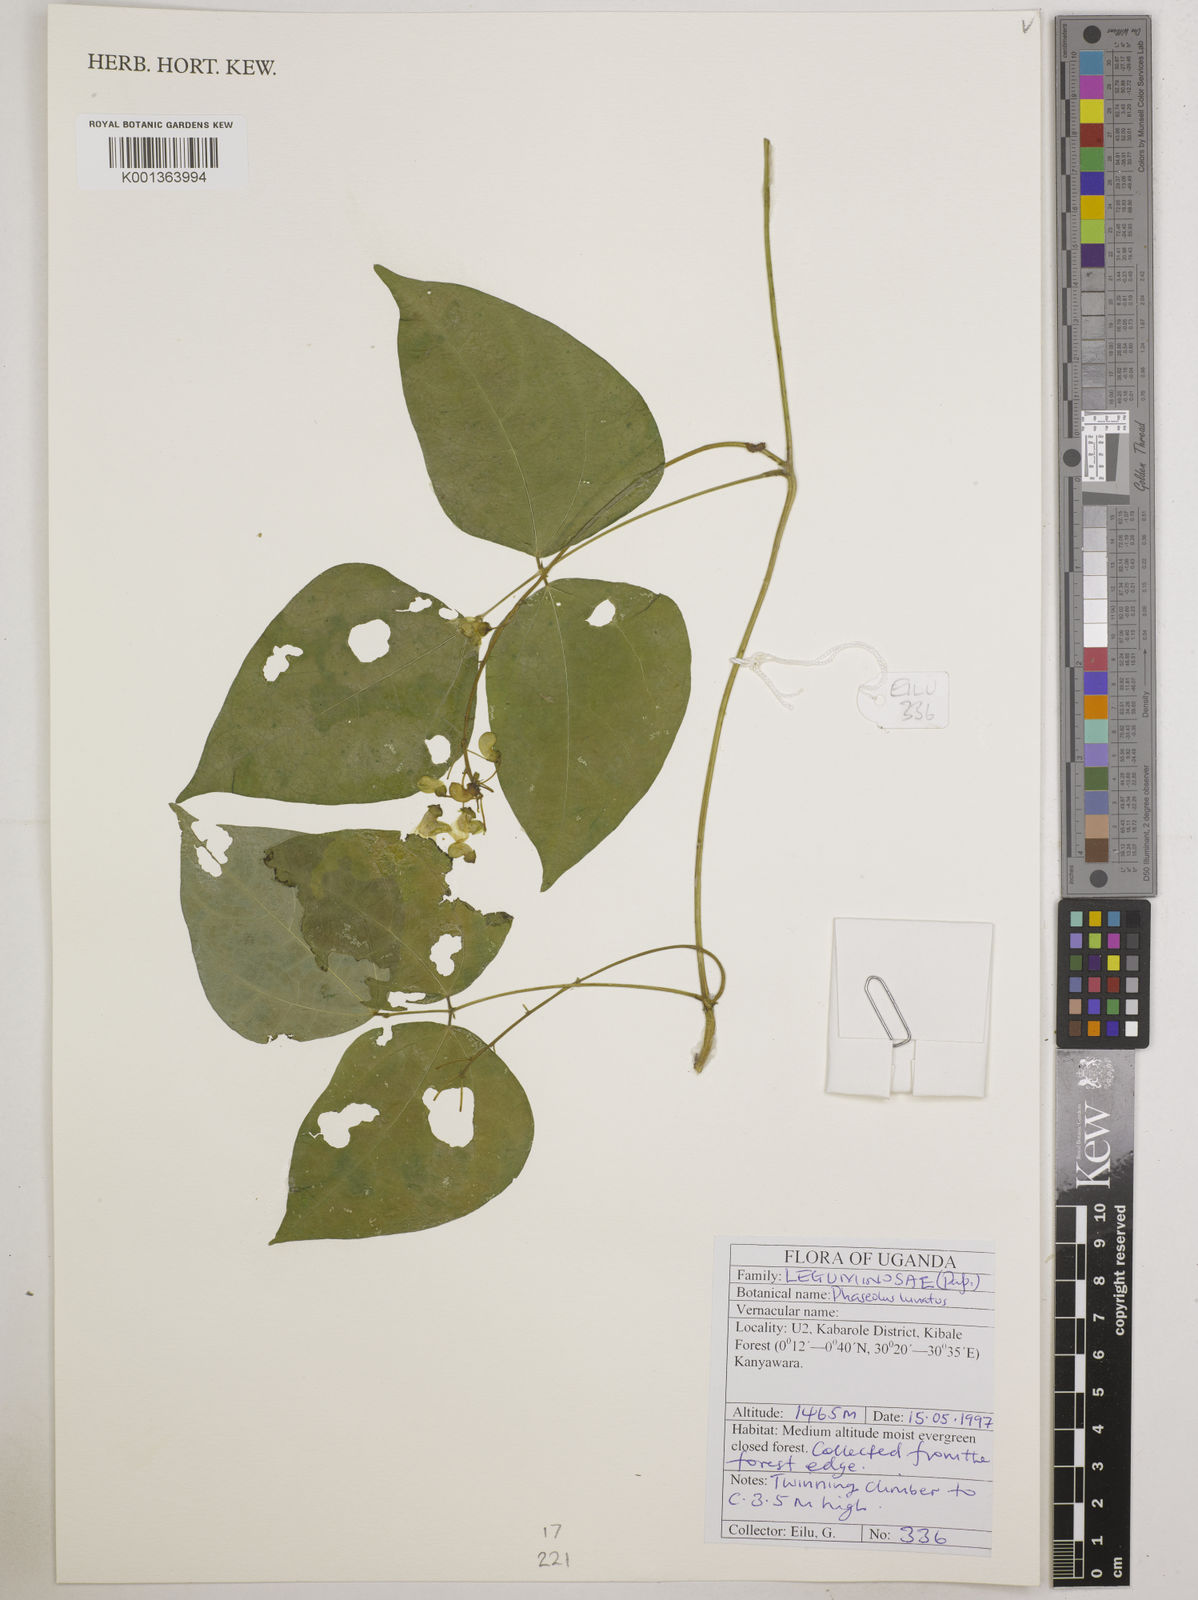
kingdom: Plantae
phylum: Tracheophyta
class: Magnoliopsida
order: Fabales
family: Fabaceae
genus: Phaseolus
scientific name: Phaseolus lunatus
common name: Sieva bean
